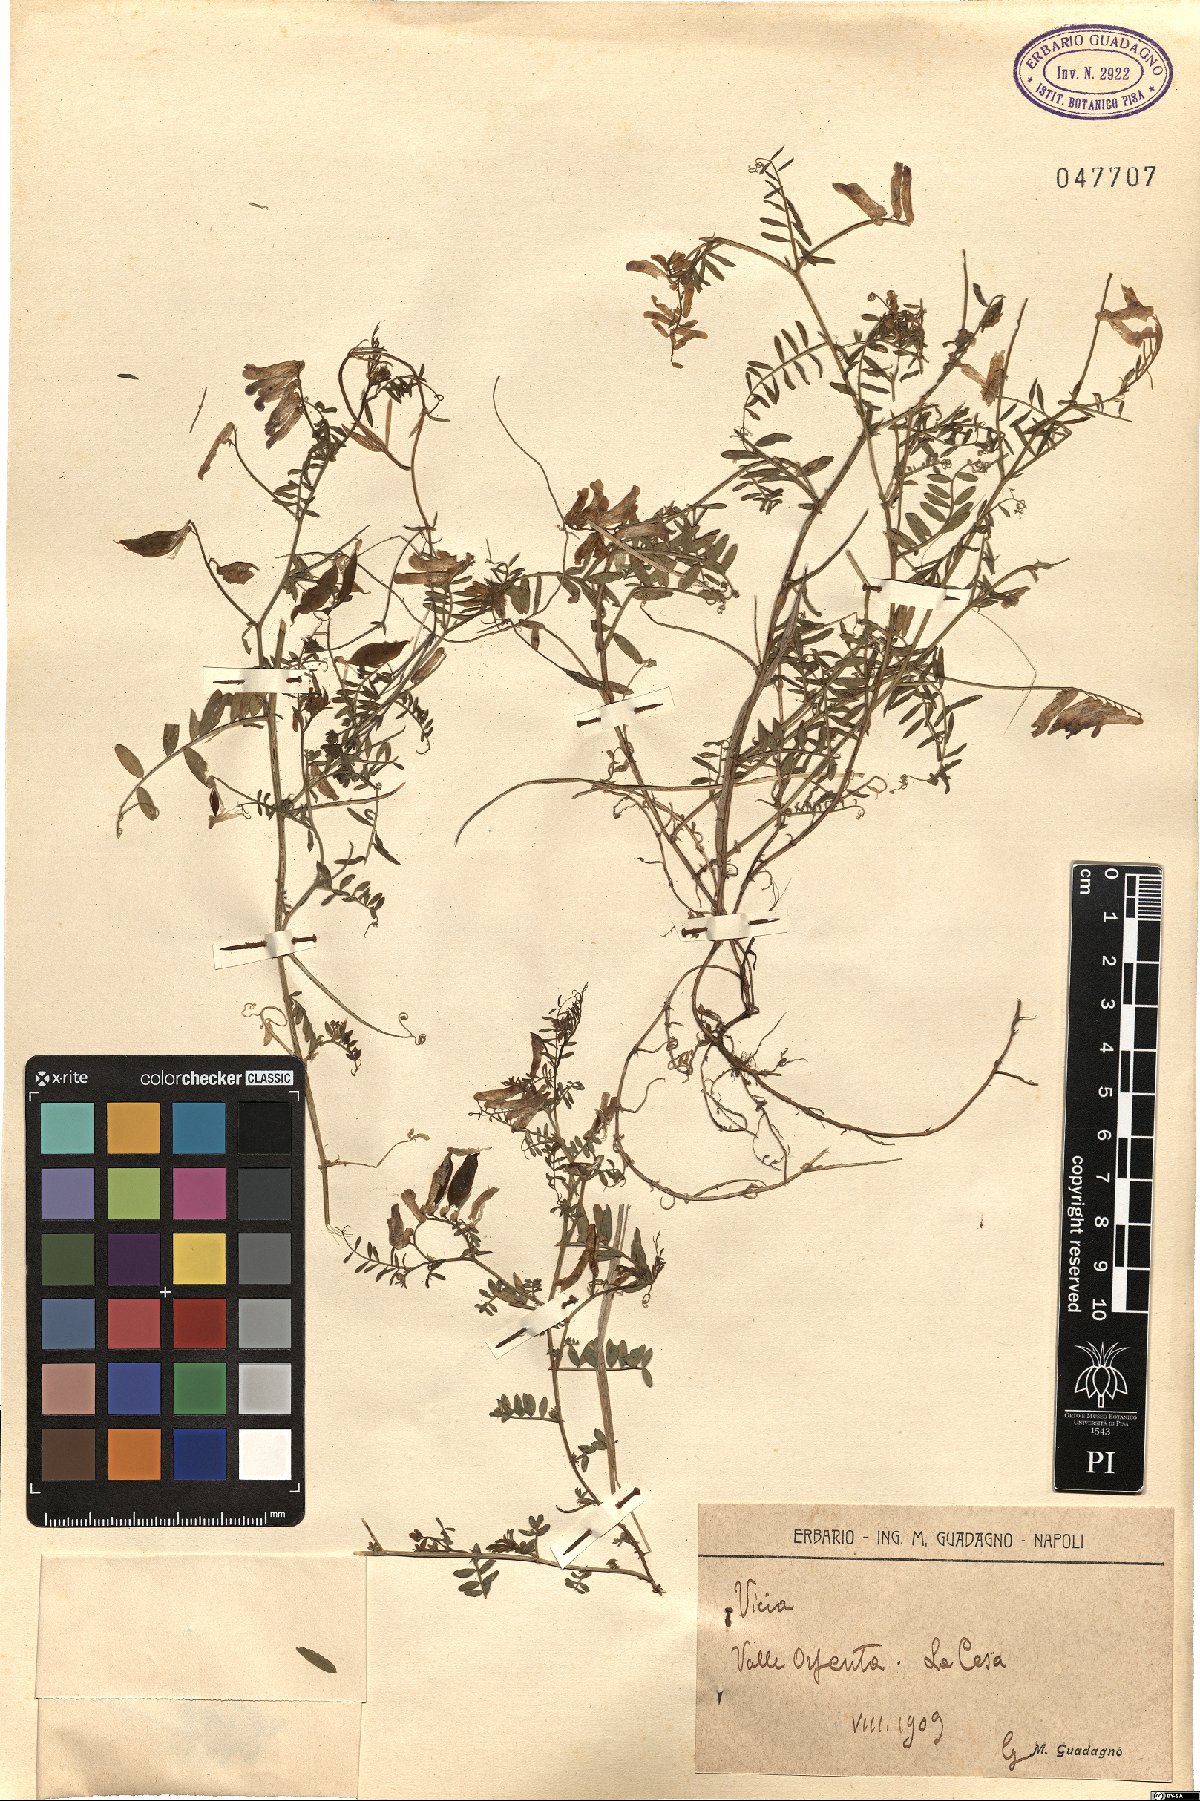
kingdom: Plantae
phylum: Tracheophyta
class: Magnoliopsida
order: Fabales
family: Fabaceae
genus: Vicia
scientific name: Vicia
